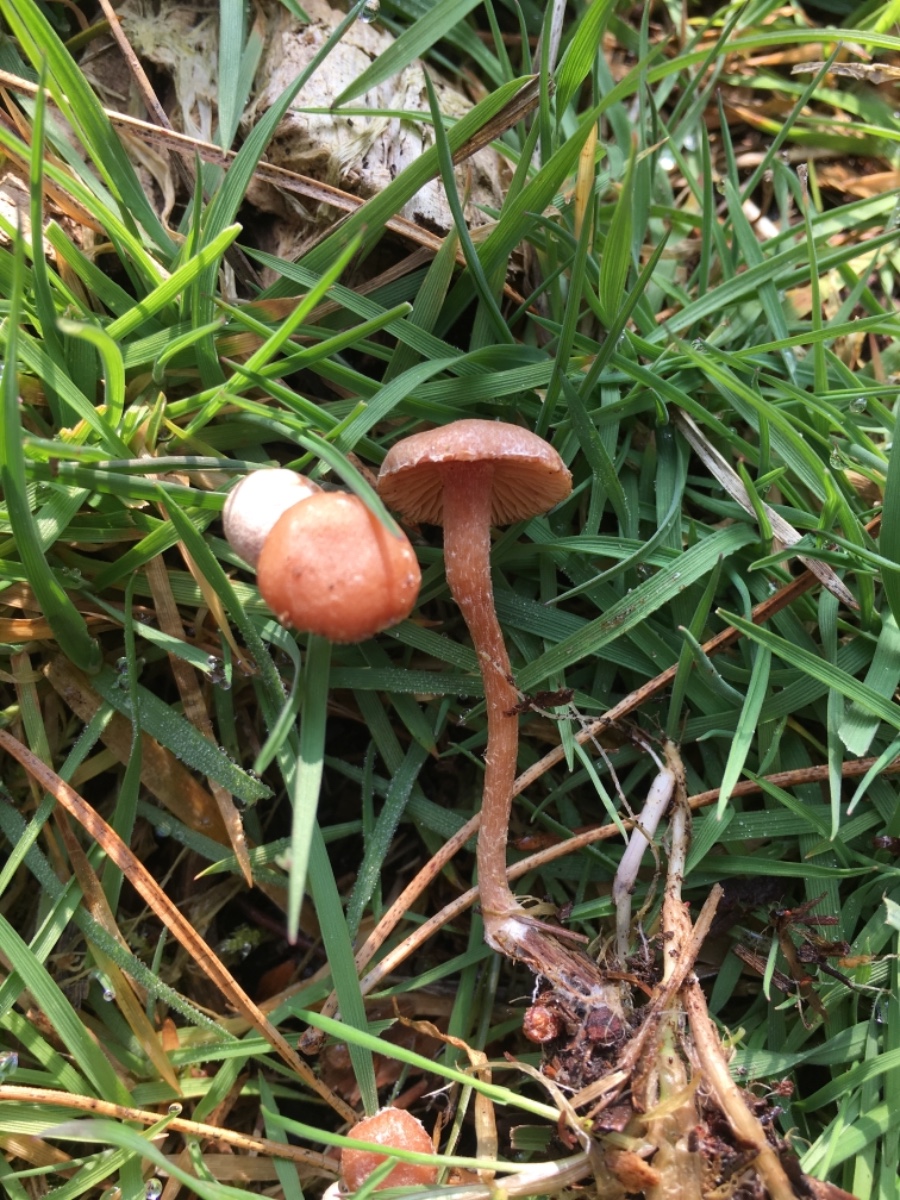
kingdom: Fungi
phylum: Basidiomycota
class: Agaricomycetes
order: Agaricales
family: Tubariaceae
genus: Tubaria
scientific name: Tubaria furfuracea
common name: kliddet fnughat
